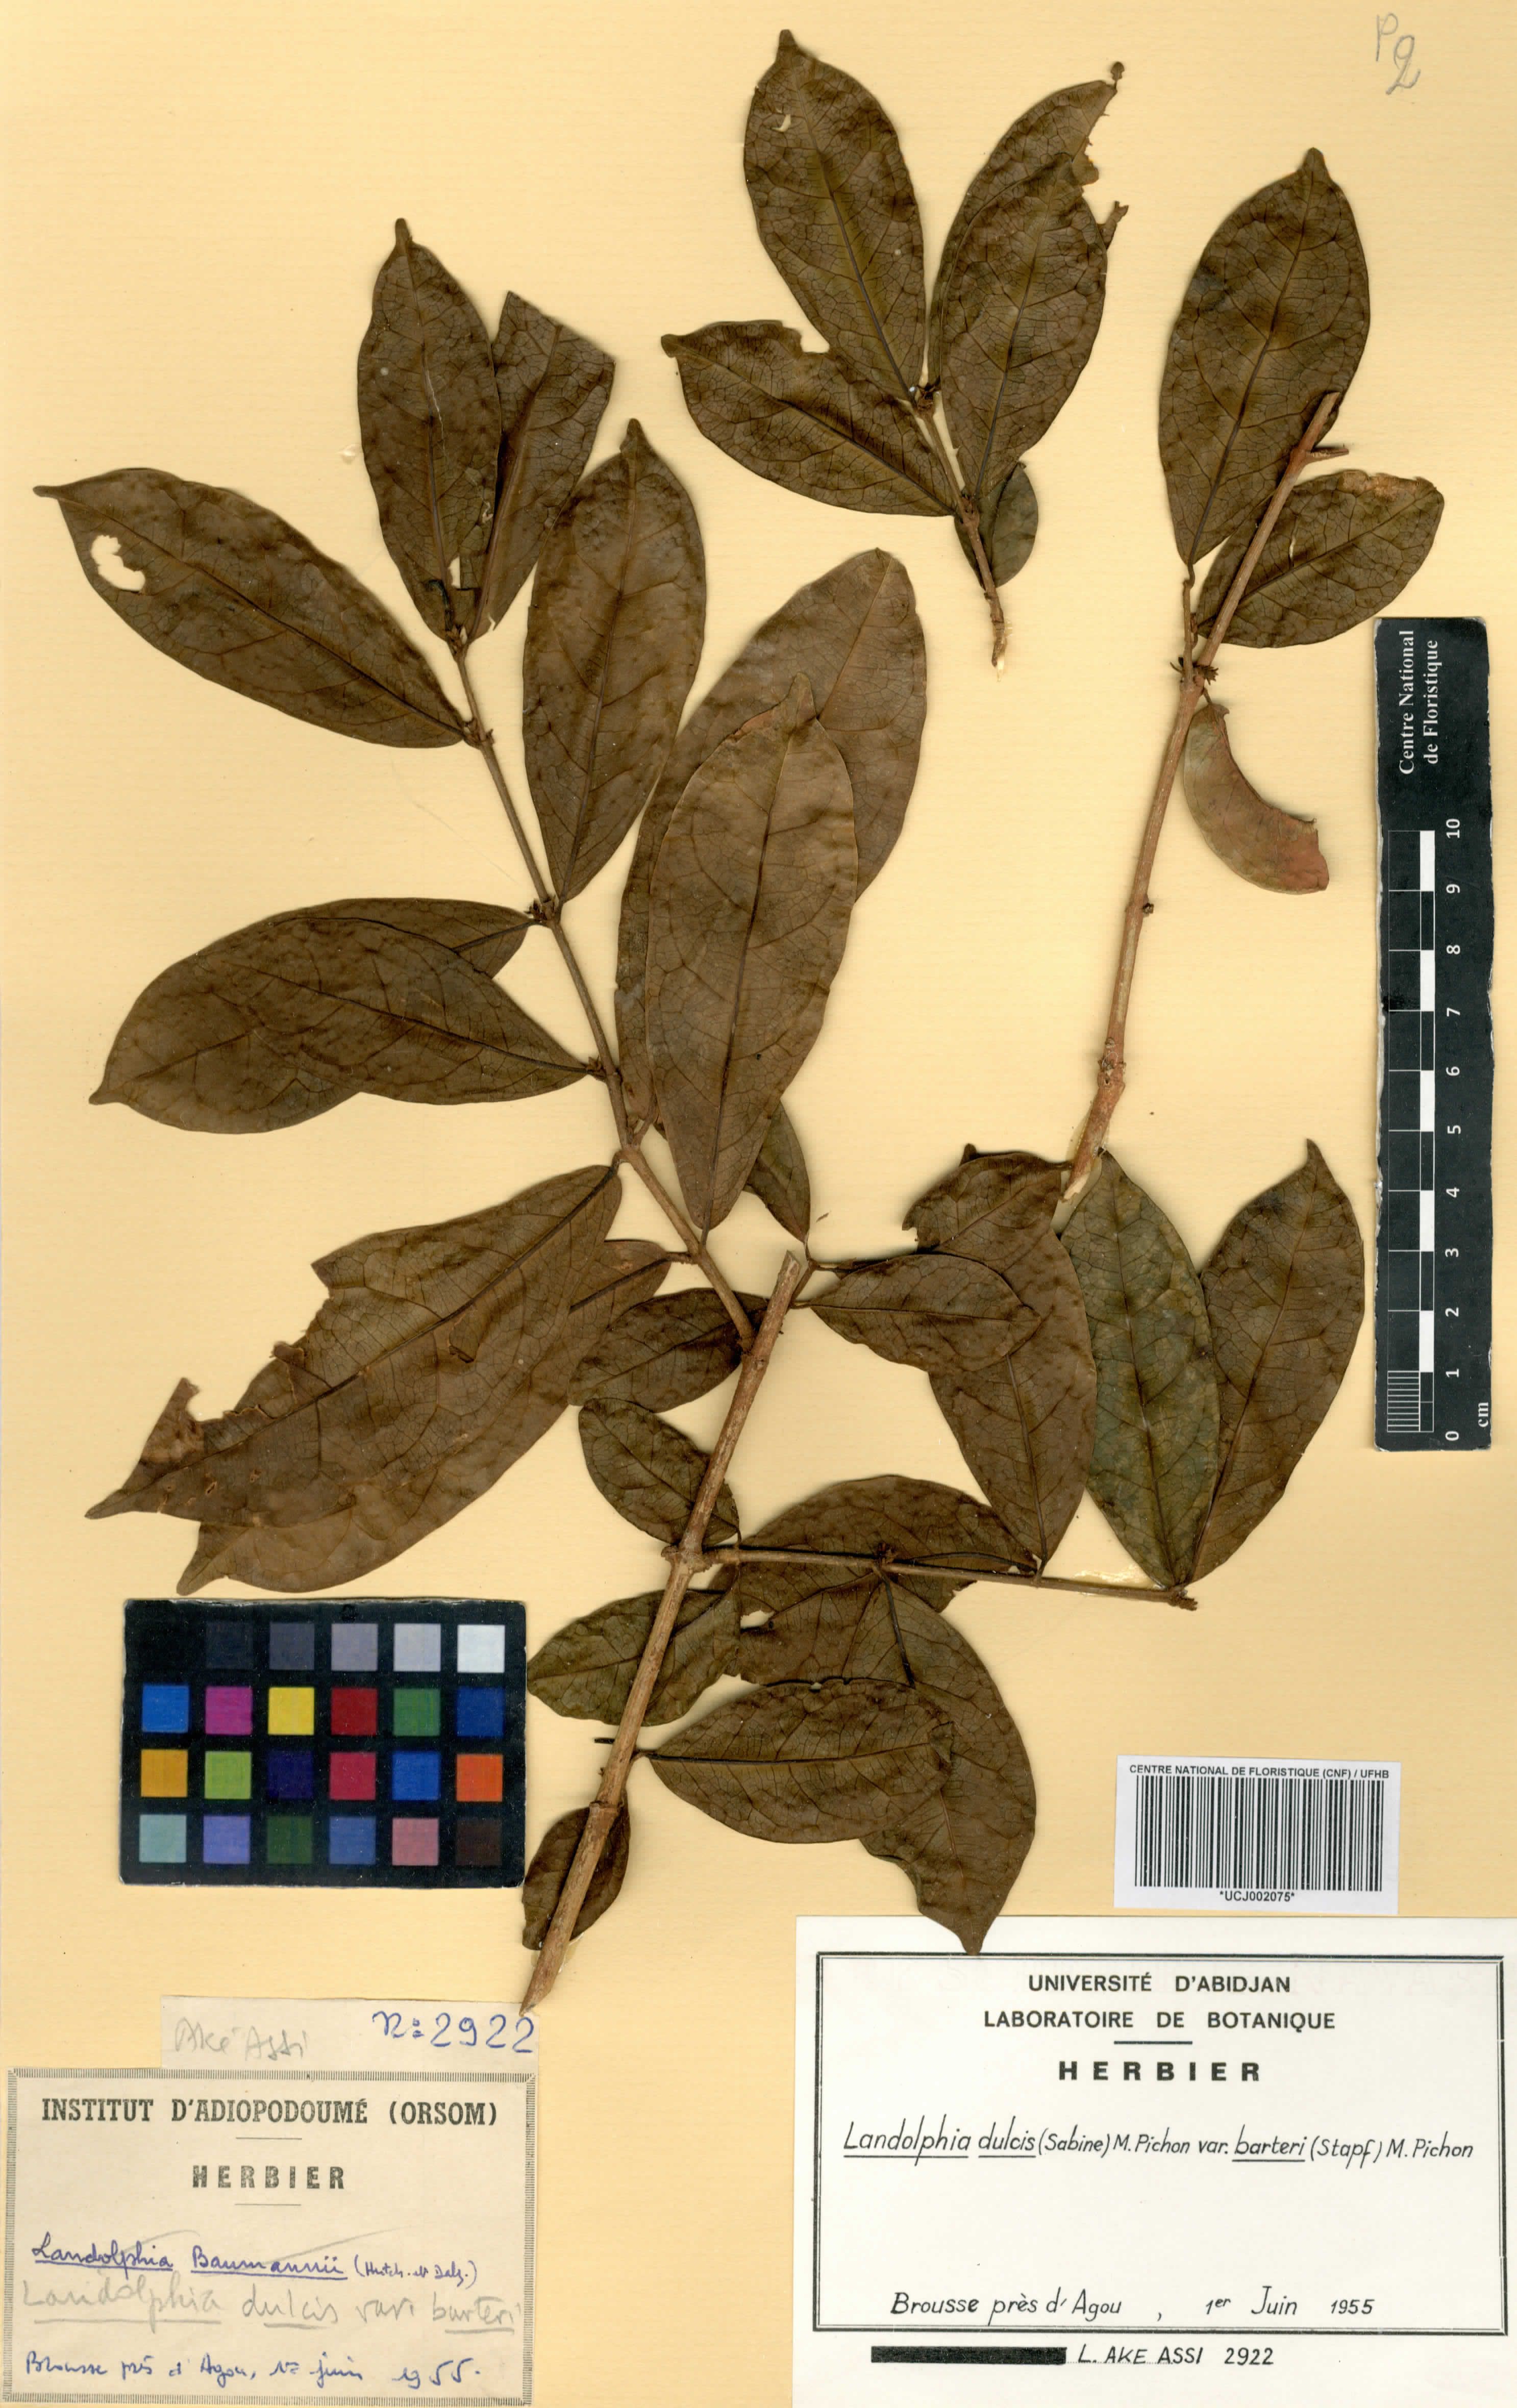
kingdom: Plantae
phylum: Tracheophyta
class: Magnoliopsida
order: Gentianales
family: Apocynaceae
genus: Landolphia
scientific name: Landolphia dulcis
